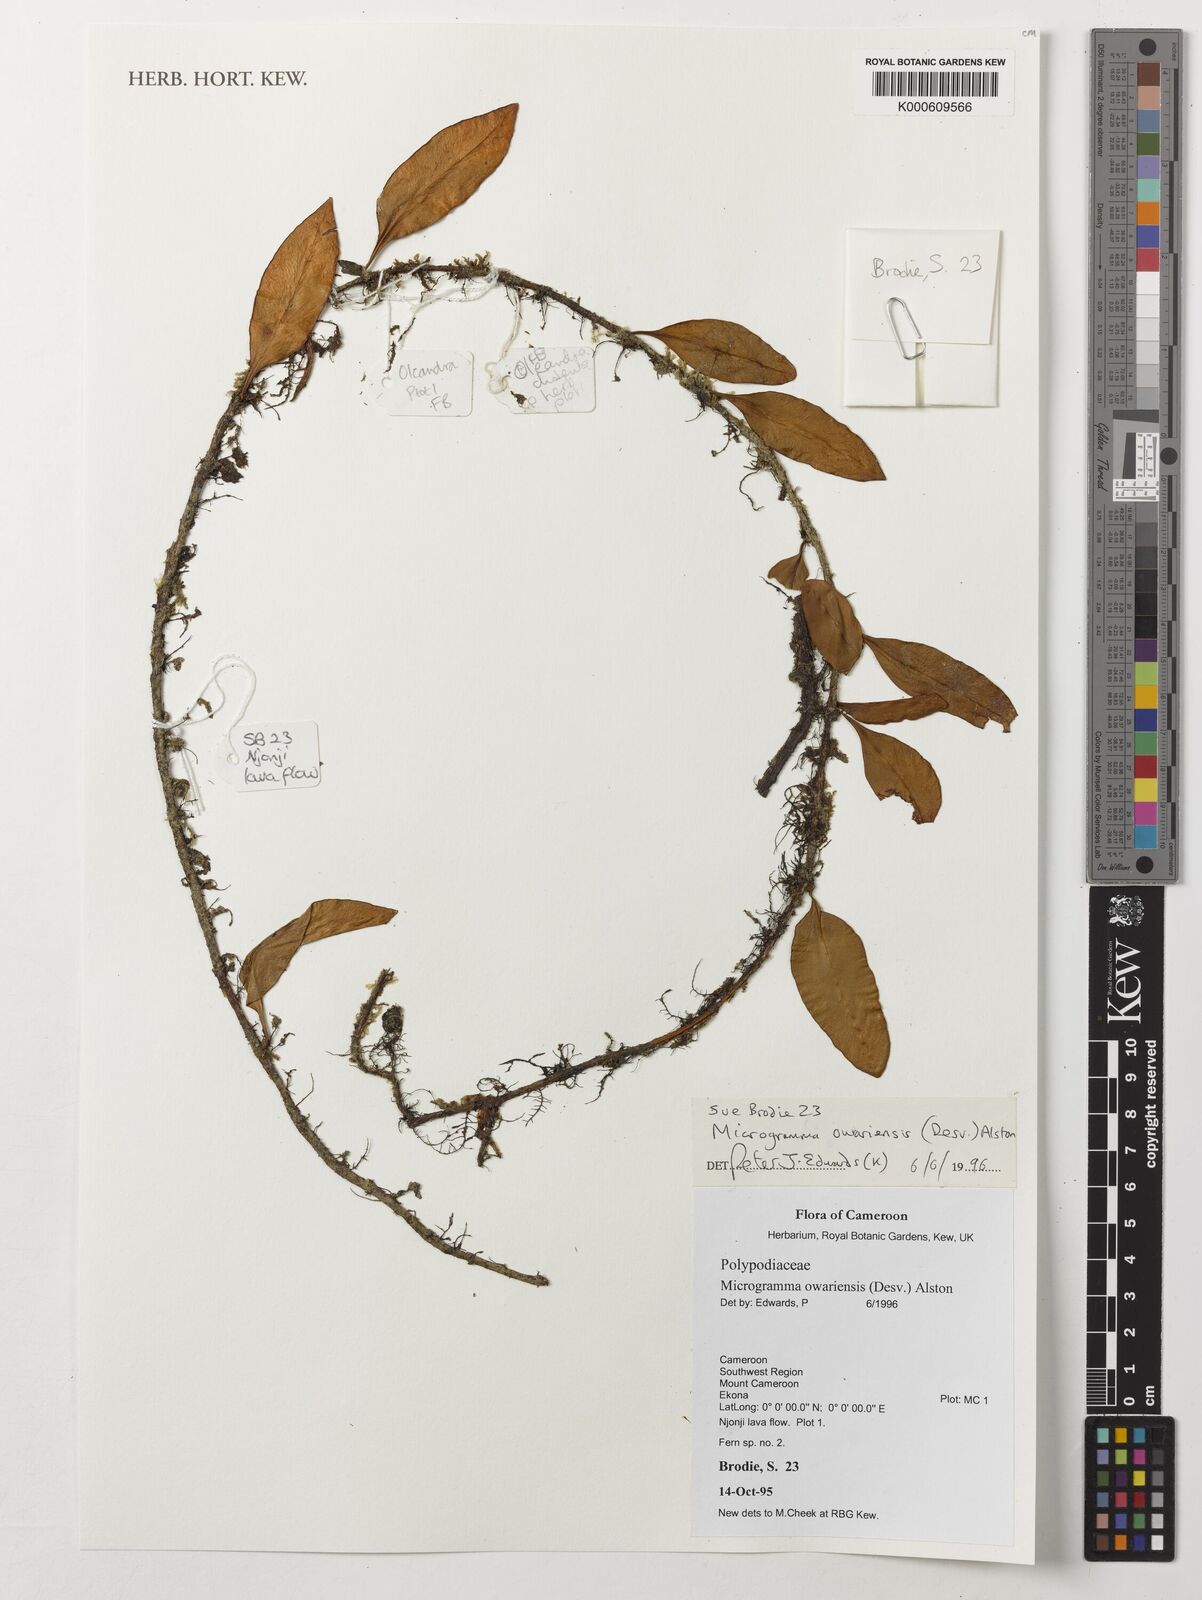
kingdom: Plantae
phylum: Tracheophyta
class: Polypodiopsida
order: Polypodiales
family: Polypodiaceae
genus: Microgramma
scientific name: Microgramma mauritiana
